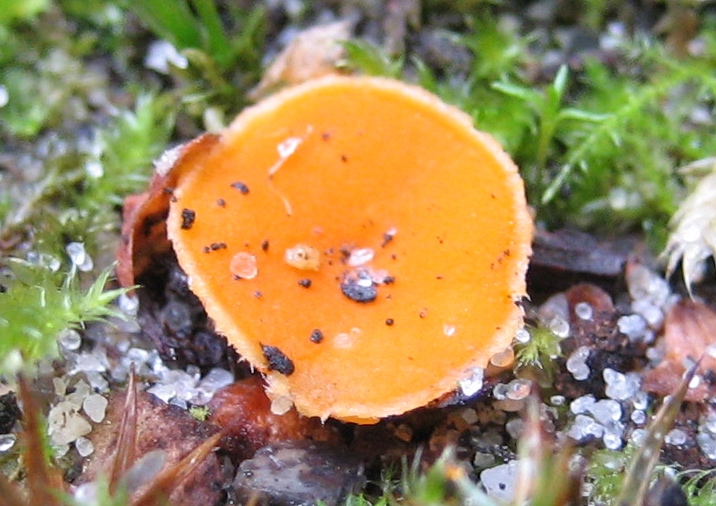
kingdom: Fungi
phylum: Ascomycota
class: Pezizomycetes
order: Pezizales
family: Pyronemataceae
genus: Neottiella
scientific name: Neottiella
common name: mosbæger
